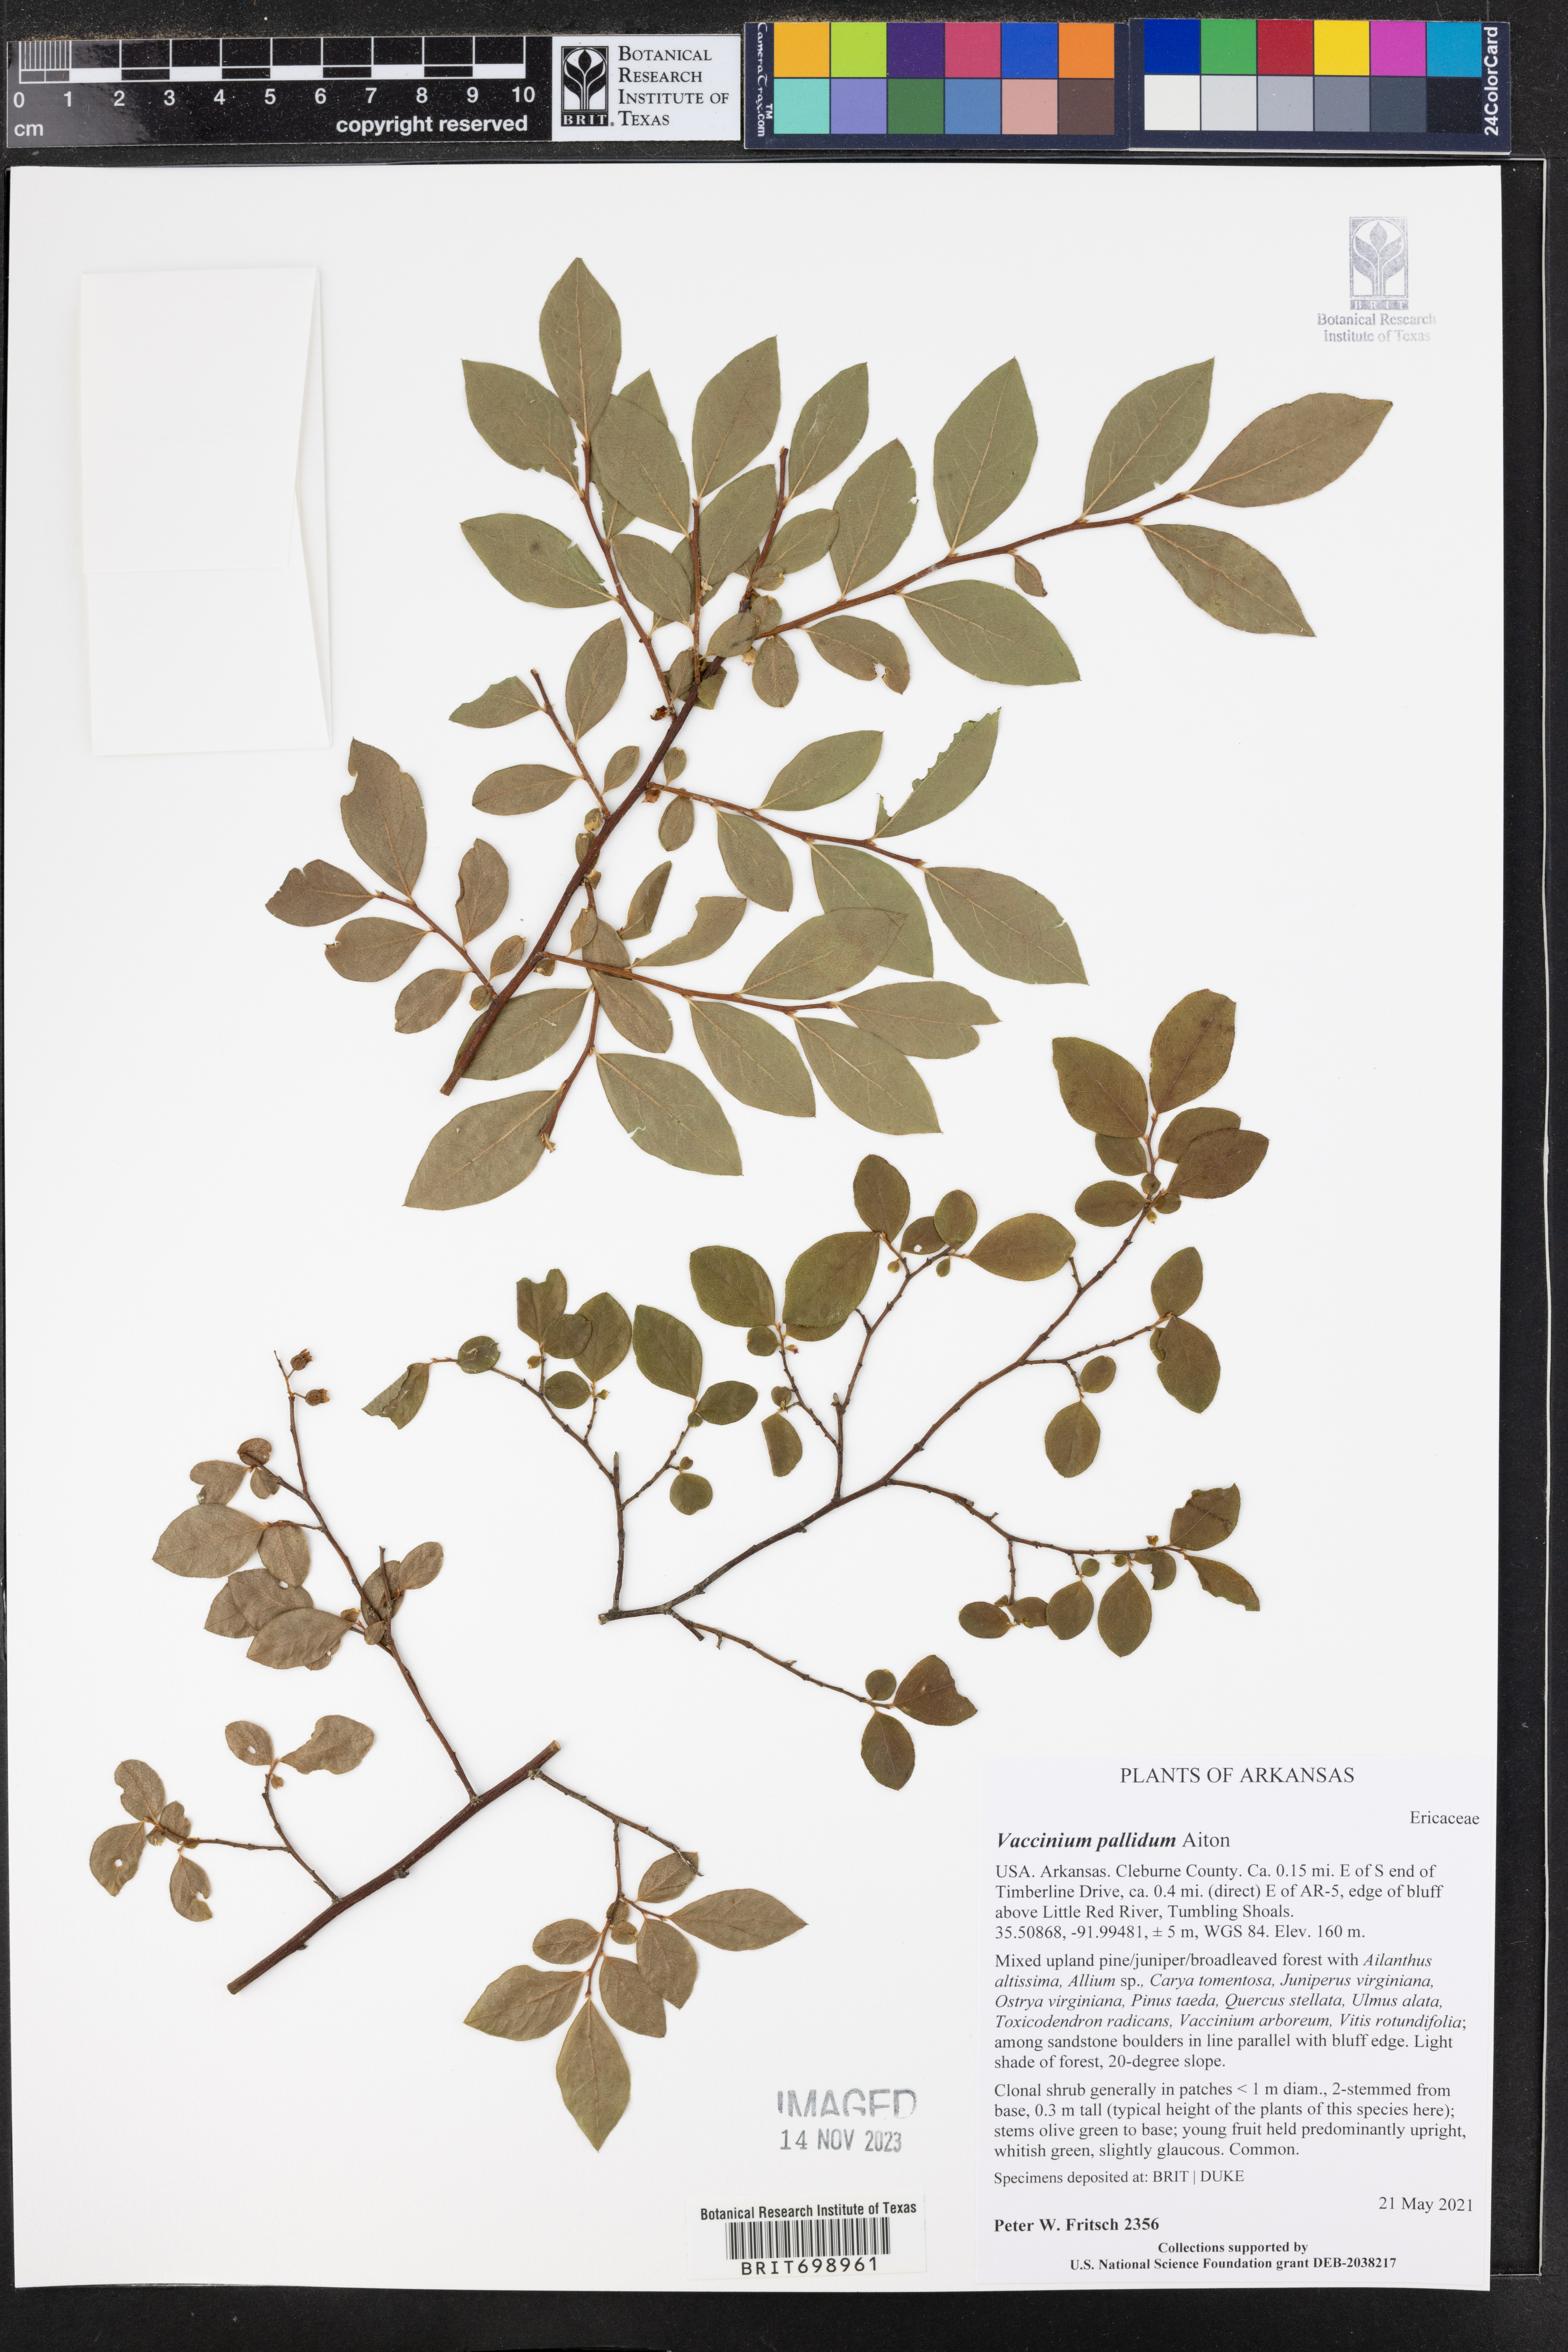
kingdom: Plantae
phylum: Tracheophyta
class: Magnoliopsida
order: Ericales
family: Ericaceae
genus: Vaccinium
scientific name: Vaccinium pallidum
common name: Blue ridge blueberry
